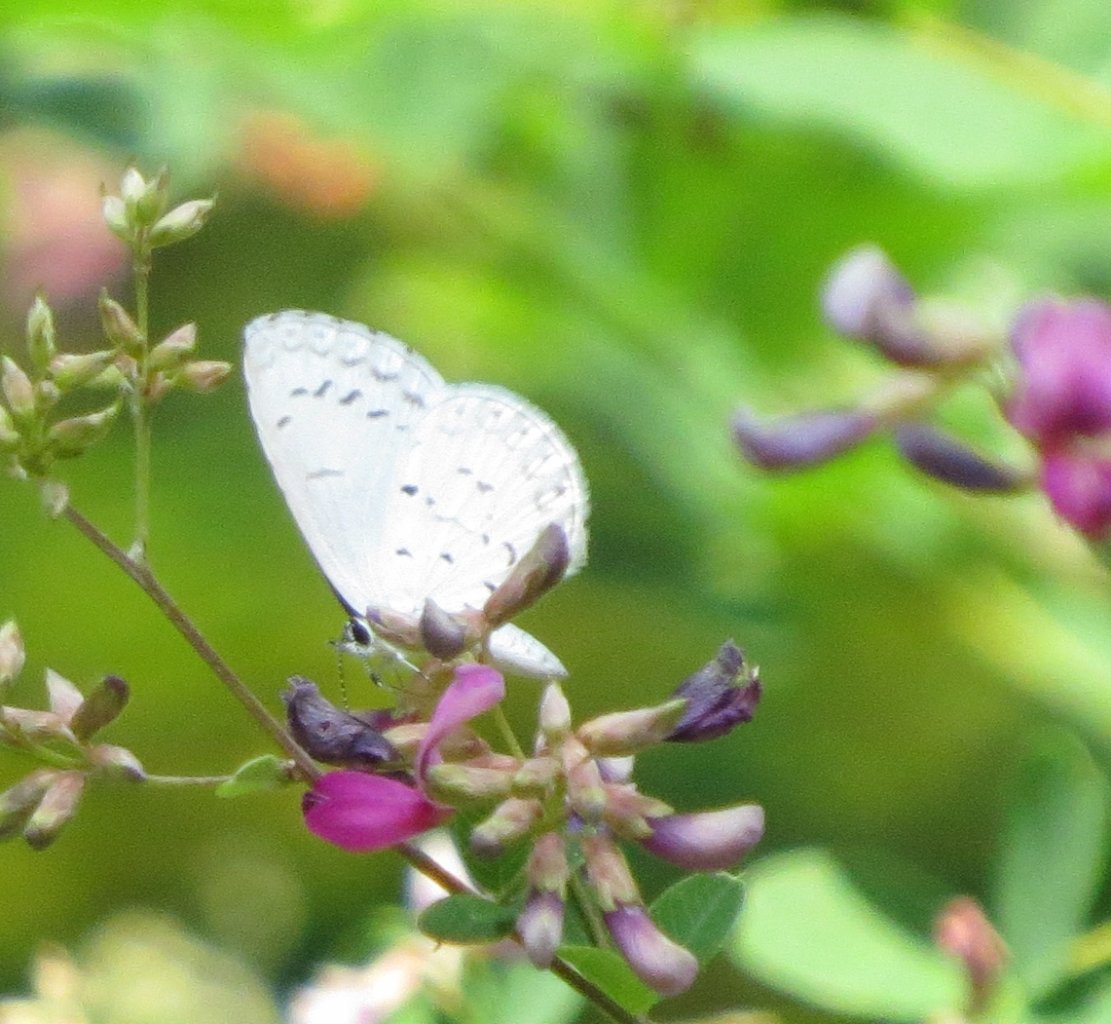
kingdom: Animalia
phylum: Arthropoda
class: Insecta
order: Lepidoptera
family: Lycaenidae
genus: Cyaniris
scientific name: Cyaniris neglecta
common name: Summer Azure
